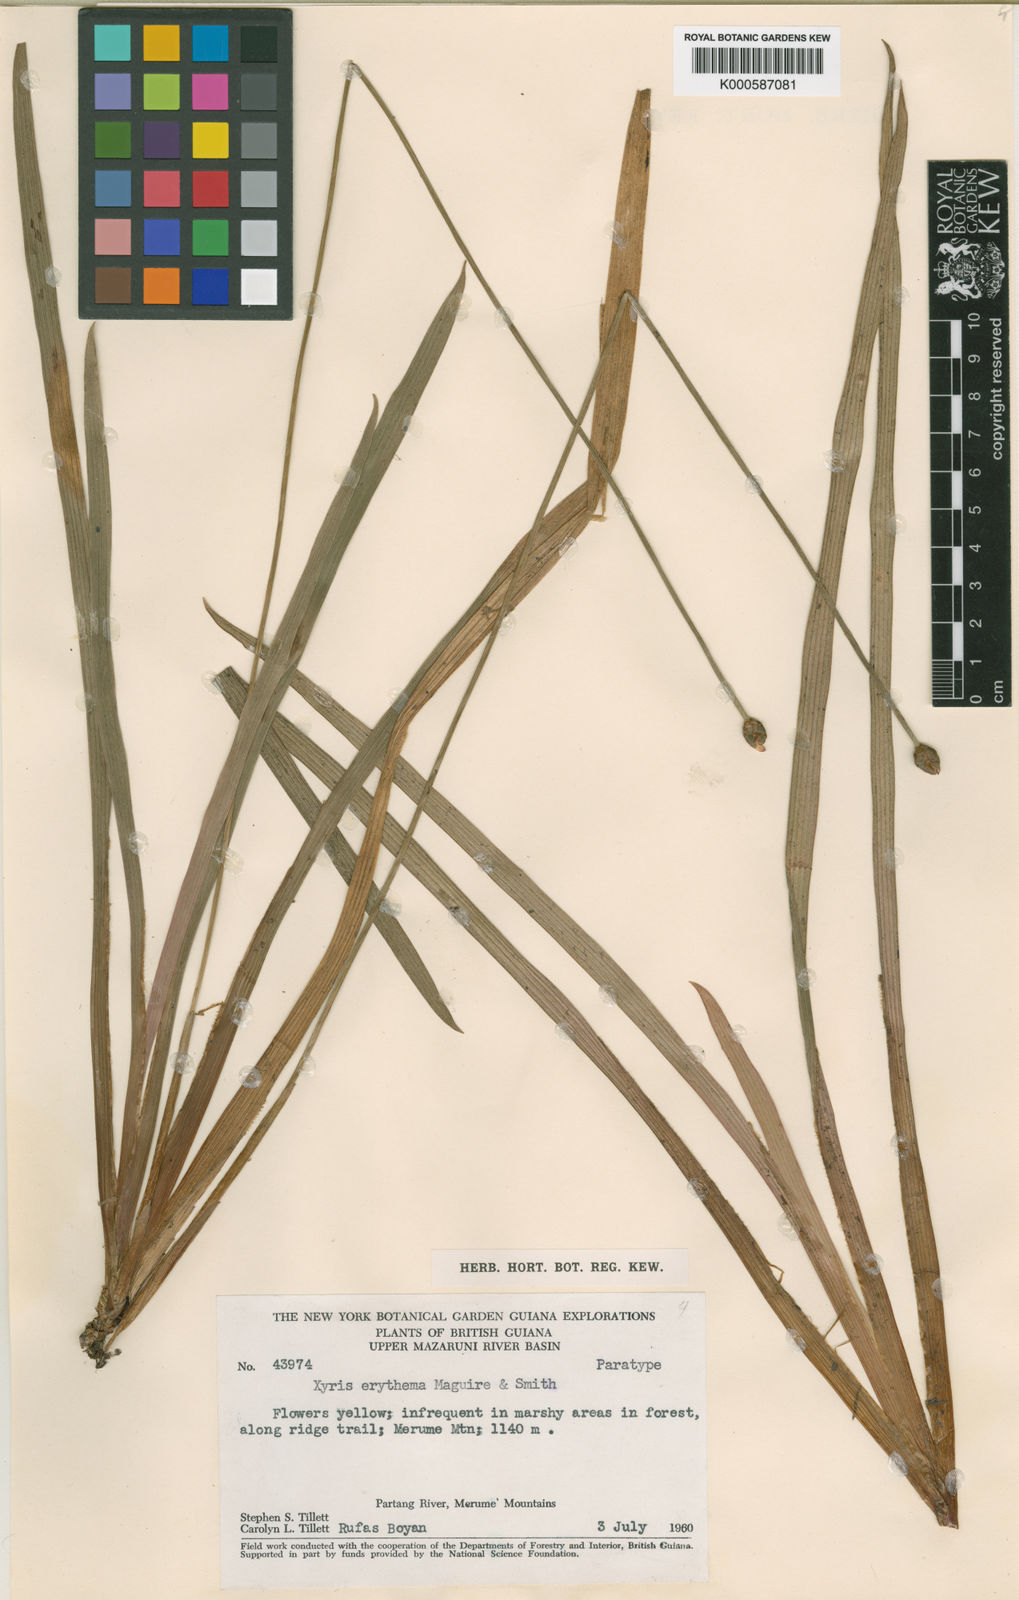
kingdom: Plantae
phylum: Tracheophyta
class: Liliopsida
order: Poales
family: Xyridaceae
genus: Xyris
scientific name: Xyris fallax
